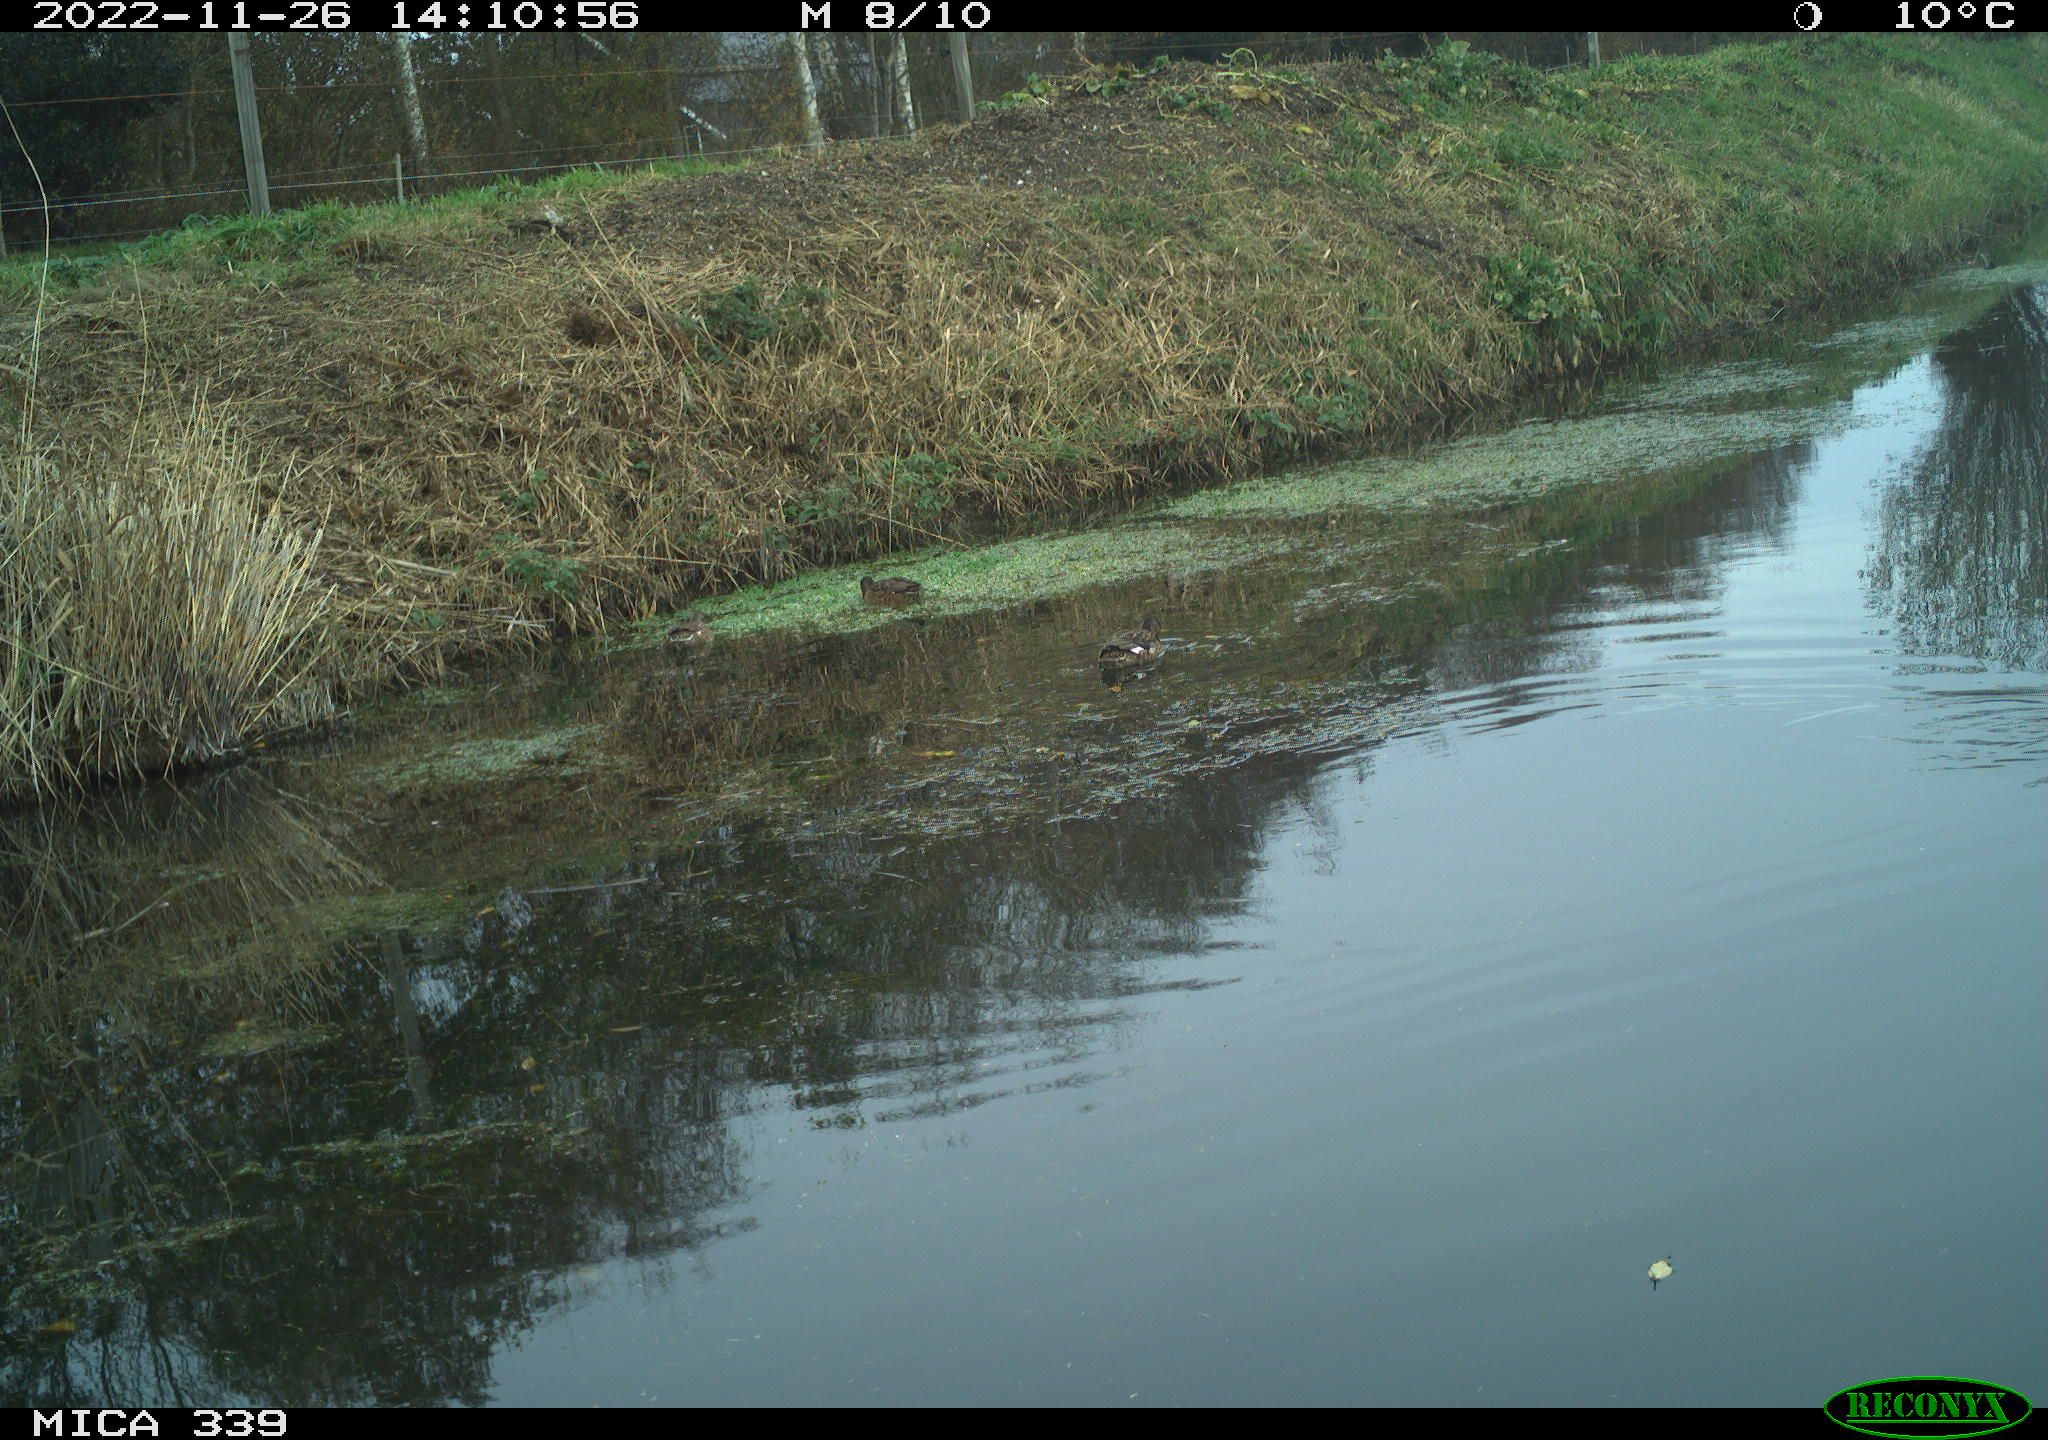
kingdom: Animalia
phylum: Chordata
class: Aves
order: Anseriformes
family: Anatidae
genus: Anas
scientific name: Anas
